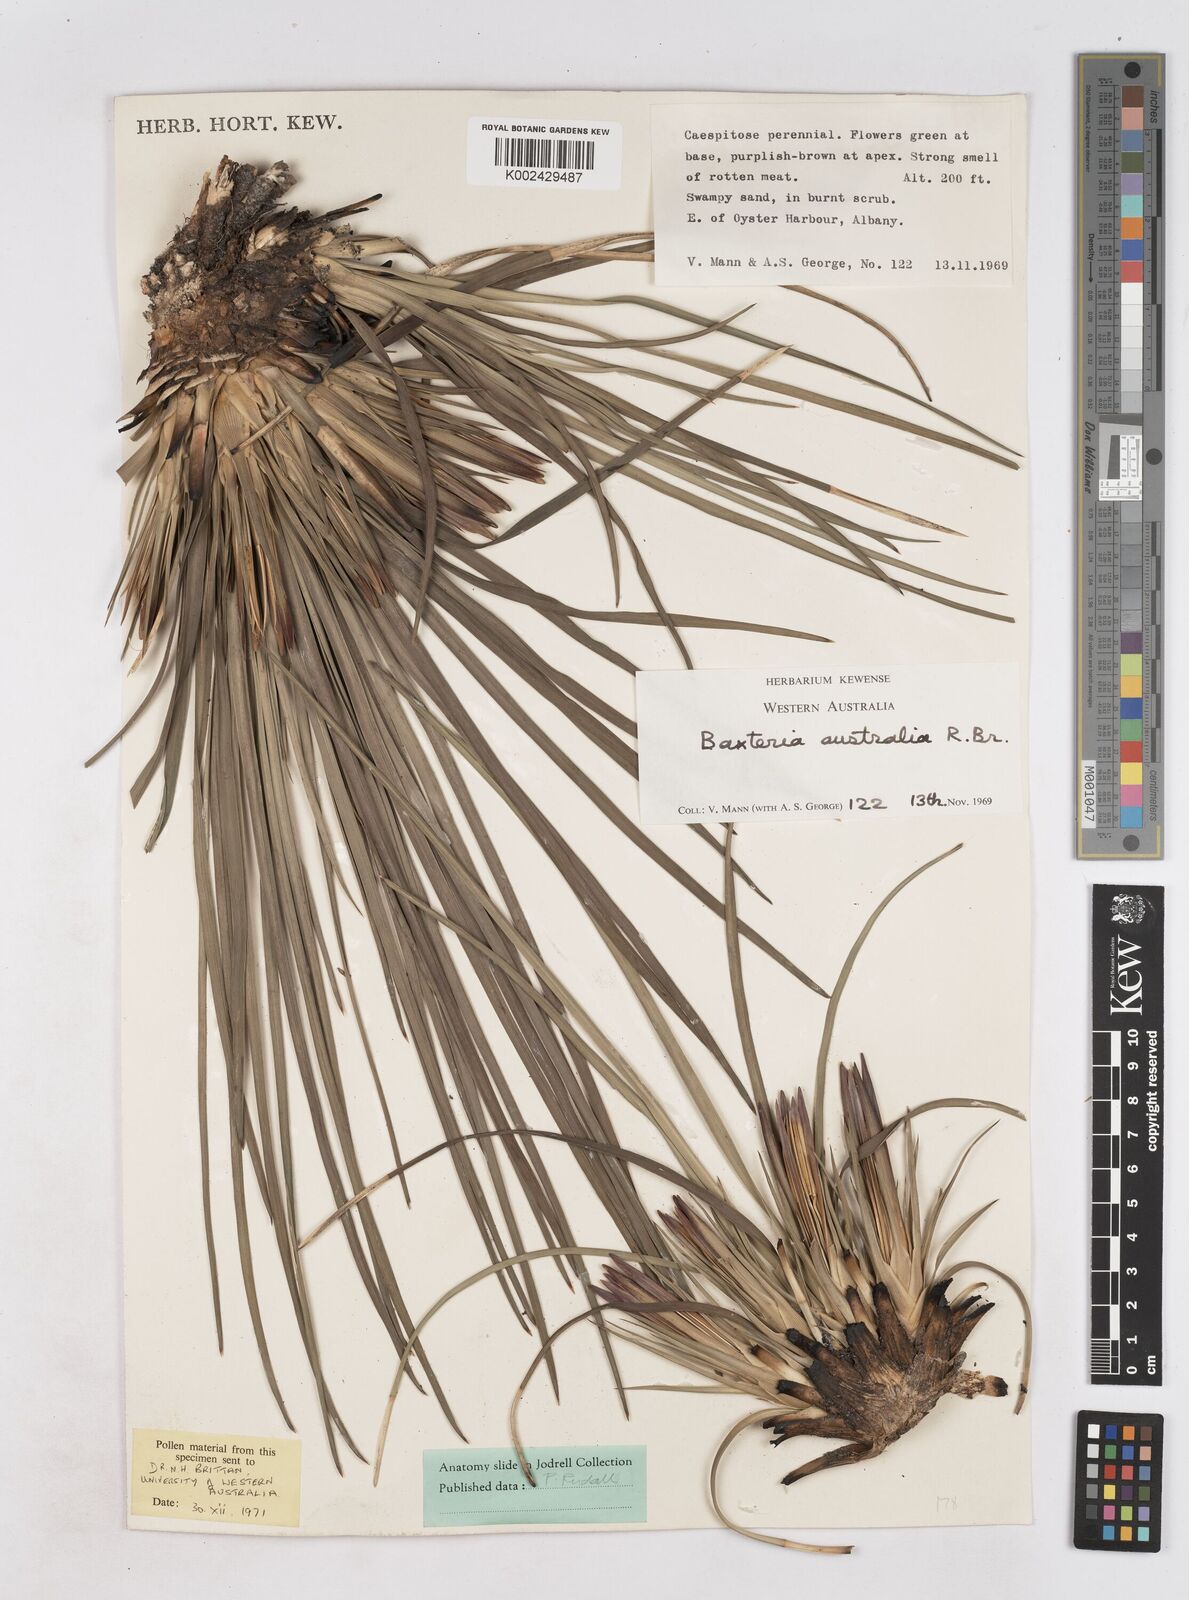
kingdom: Plantae
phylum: Tracheophyta
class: Liliopsida
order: Arecales
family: Dasypogonaceae
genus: Baxteria
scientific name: Baxteria
